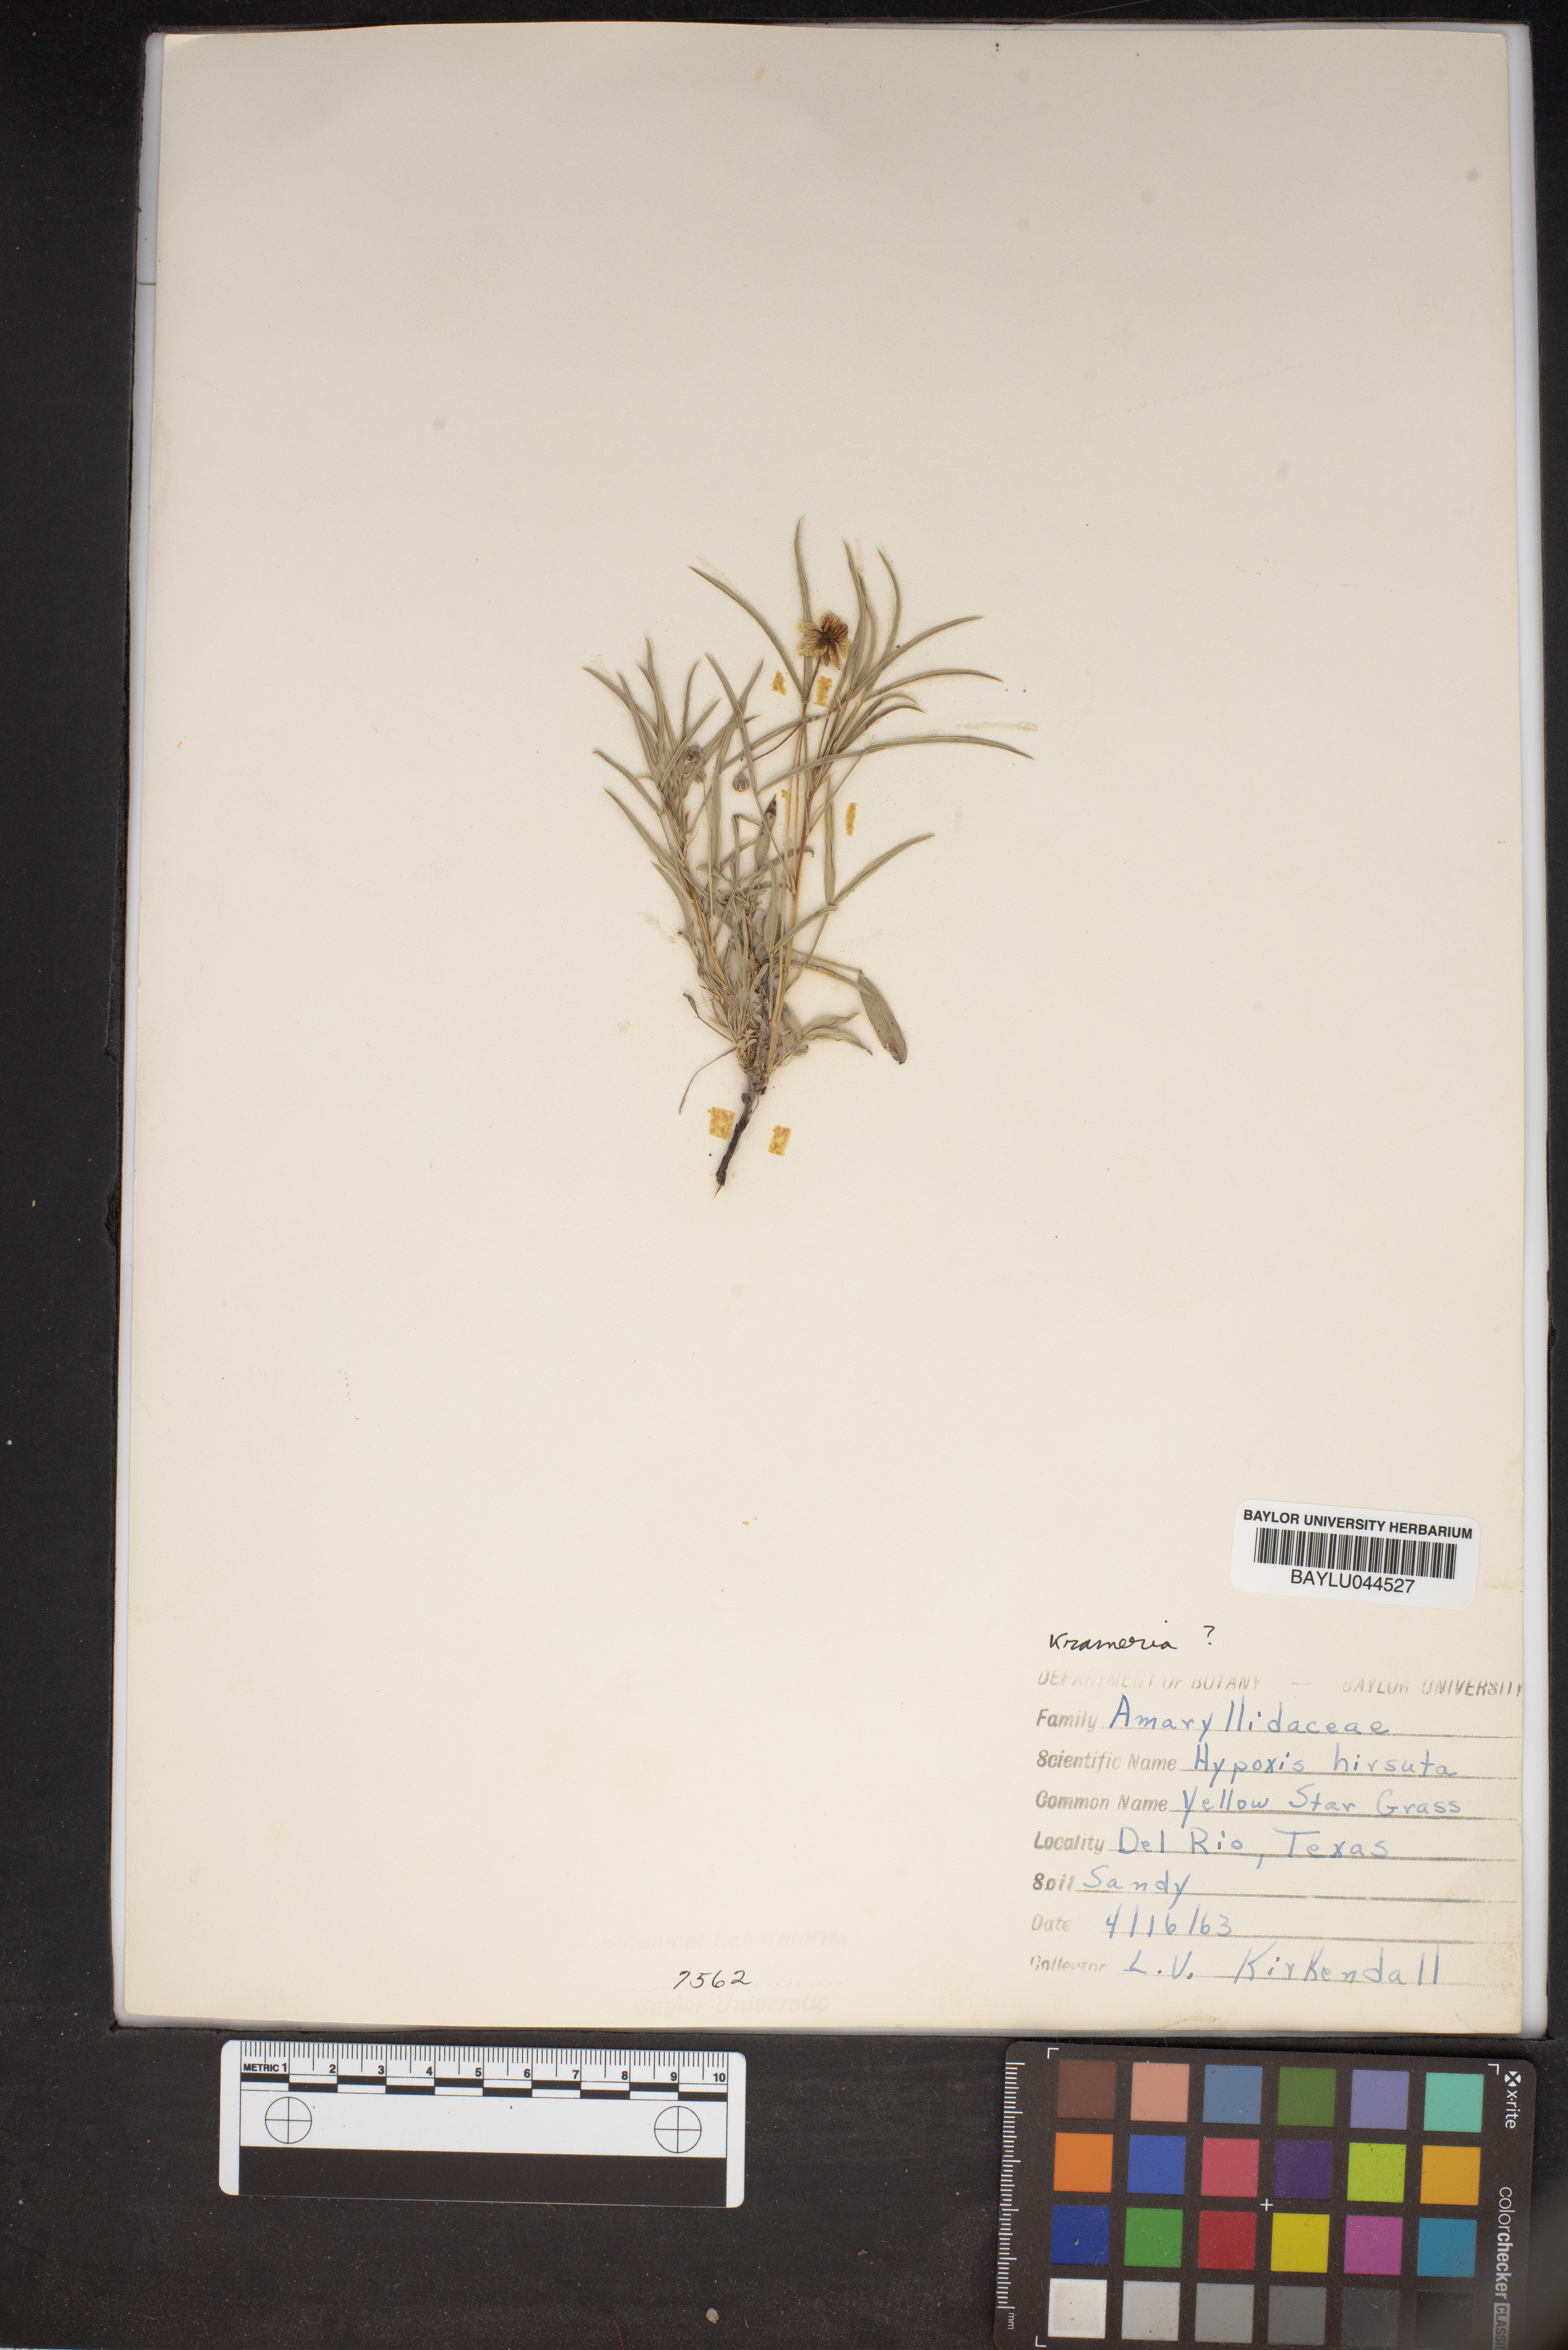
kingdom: Plantae
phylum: Tracheophyta
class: Liliopsida
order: Asparagales
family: Hypoxidaceae
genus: Hypoxis
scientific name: Hypoxis hirsuta
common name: Common goldstar
